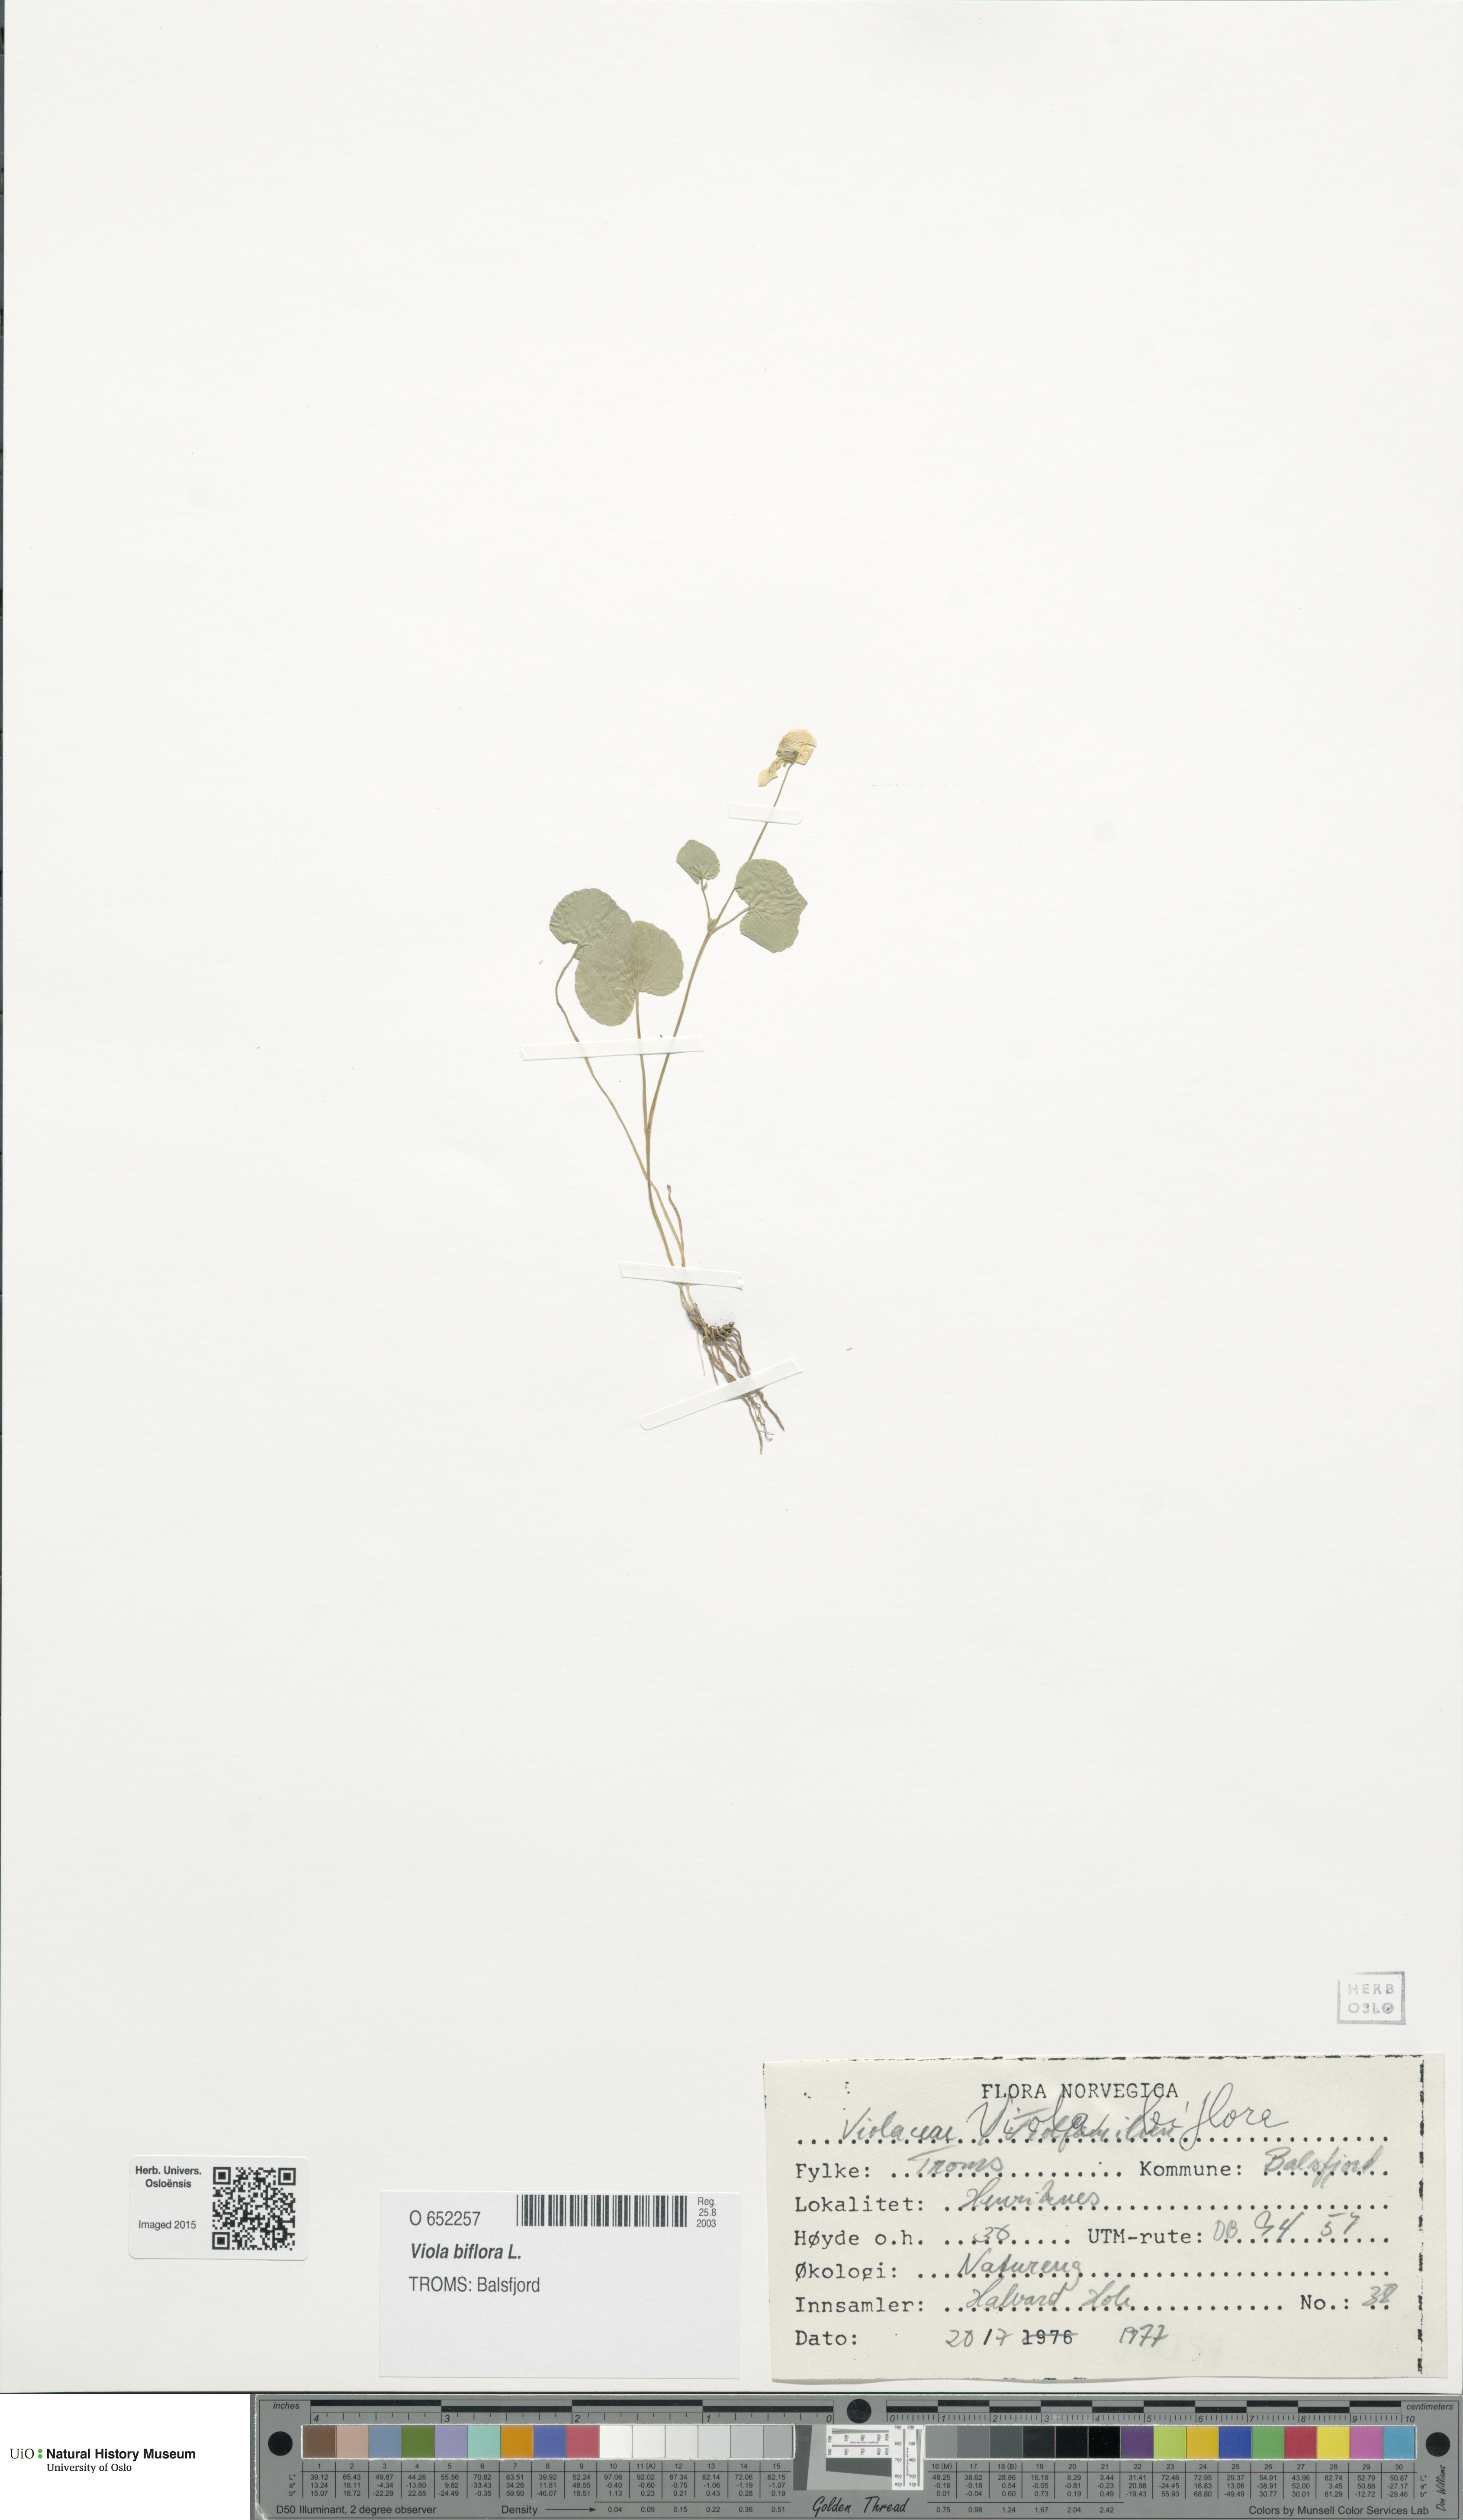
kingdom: Plantae
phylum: Tracheophyta
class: Magnoliopsida
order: Malpighiales
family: Violaceae
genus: Viola
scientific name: Viola biflora
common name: Alpine yellow violet
